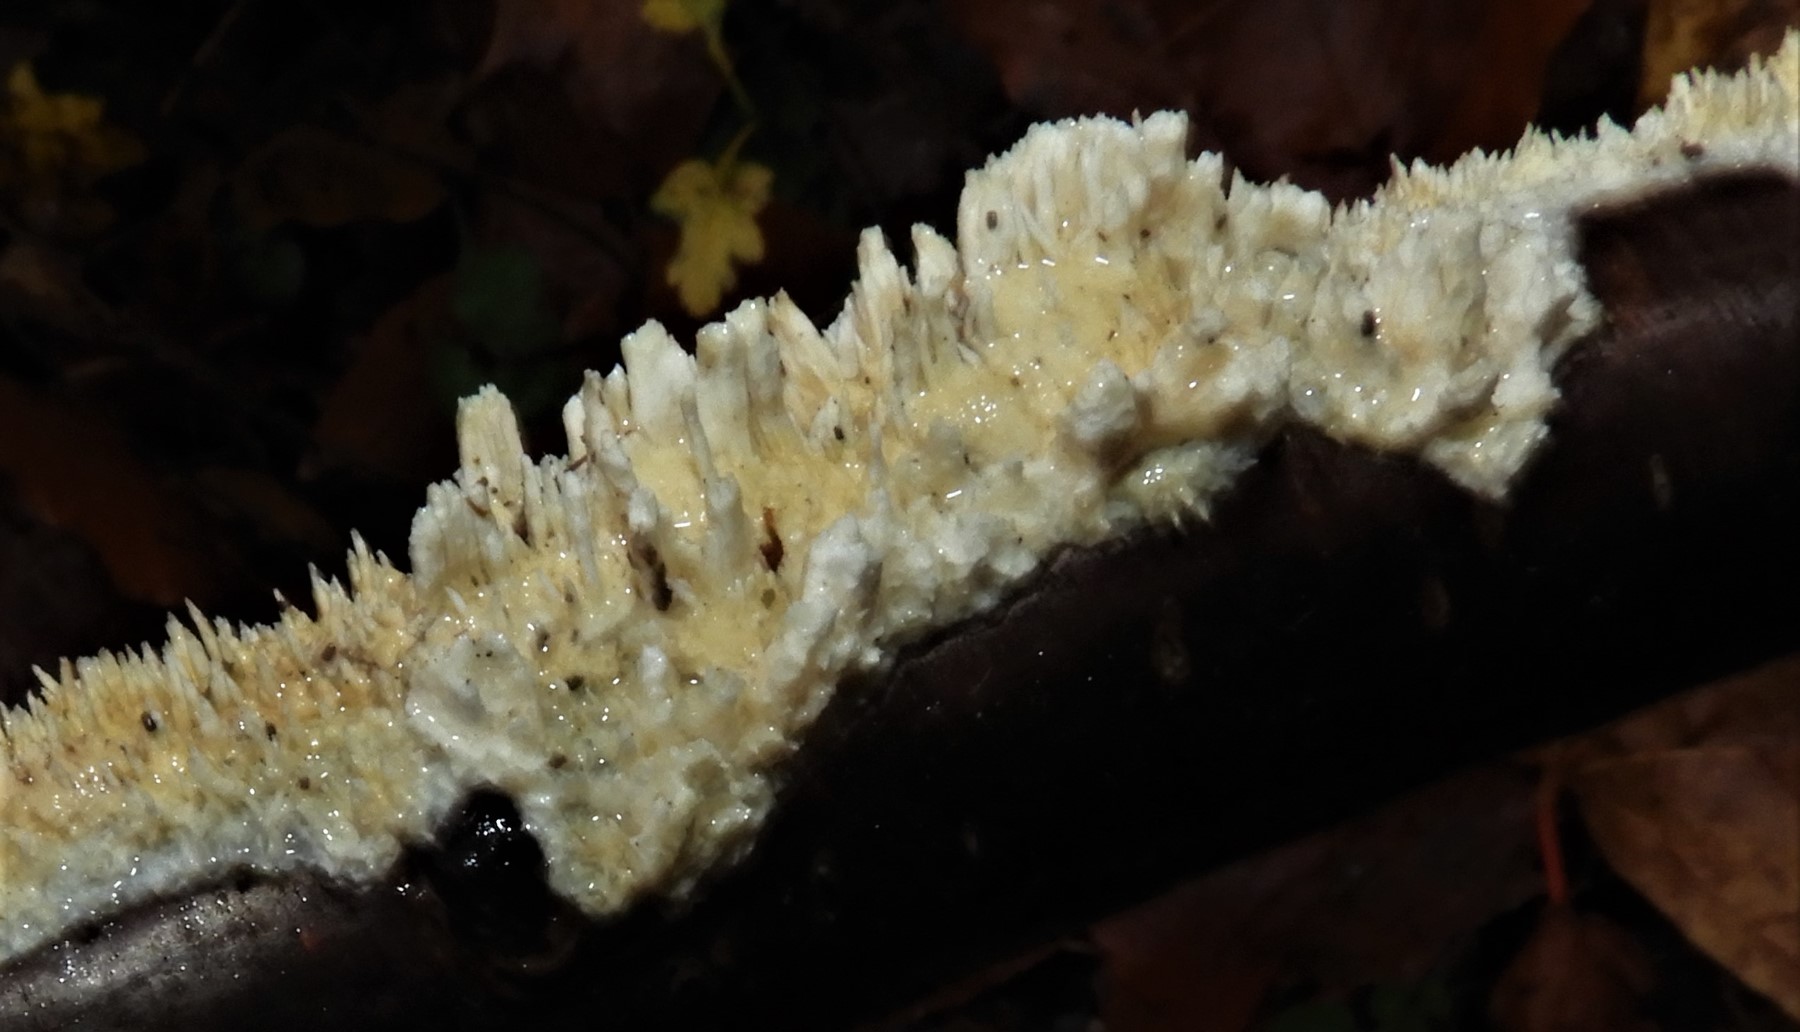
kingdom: Fungi
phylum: Basidiomycota
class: Agaricomycetes
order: Hymenochaetales
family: Schizoporaceae
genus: Xylodon
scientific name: Xylodon radula
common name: grovtandet kalkskind
